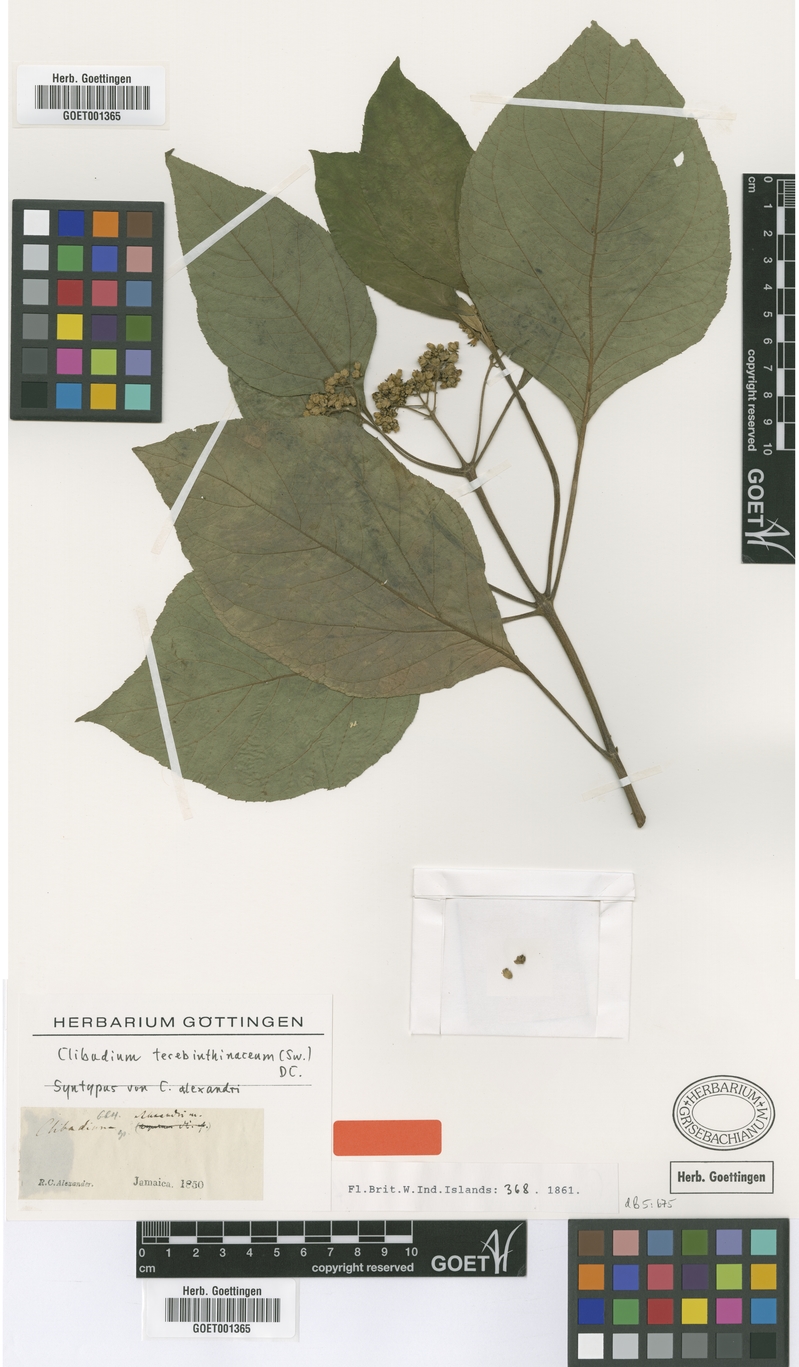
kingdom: Plantae
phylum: Tracheophyta
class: Magnoliopsida
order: Asterales
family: Asteraceae
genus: Clibadium
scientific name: Clibadium terebinthinaceum
